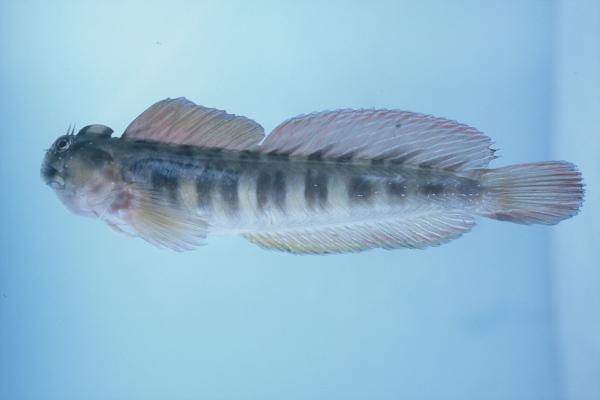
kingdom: Animalia
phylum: Chordata
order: Perciformes
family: Blenniidae
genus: Istiblennius
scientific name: Istiblennius bellus
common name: Beautiful rockskipper
